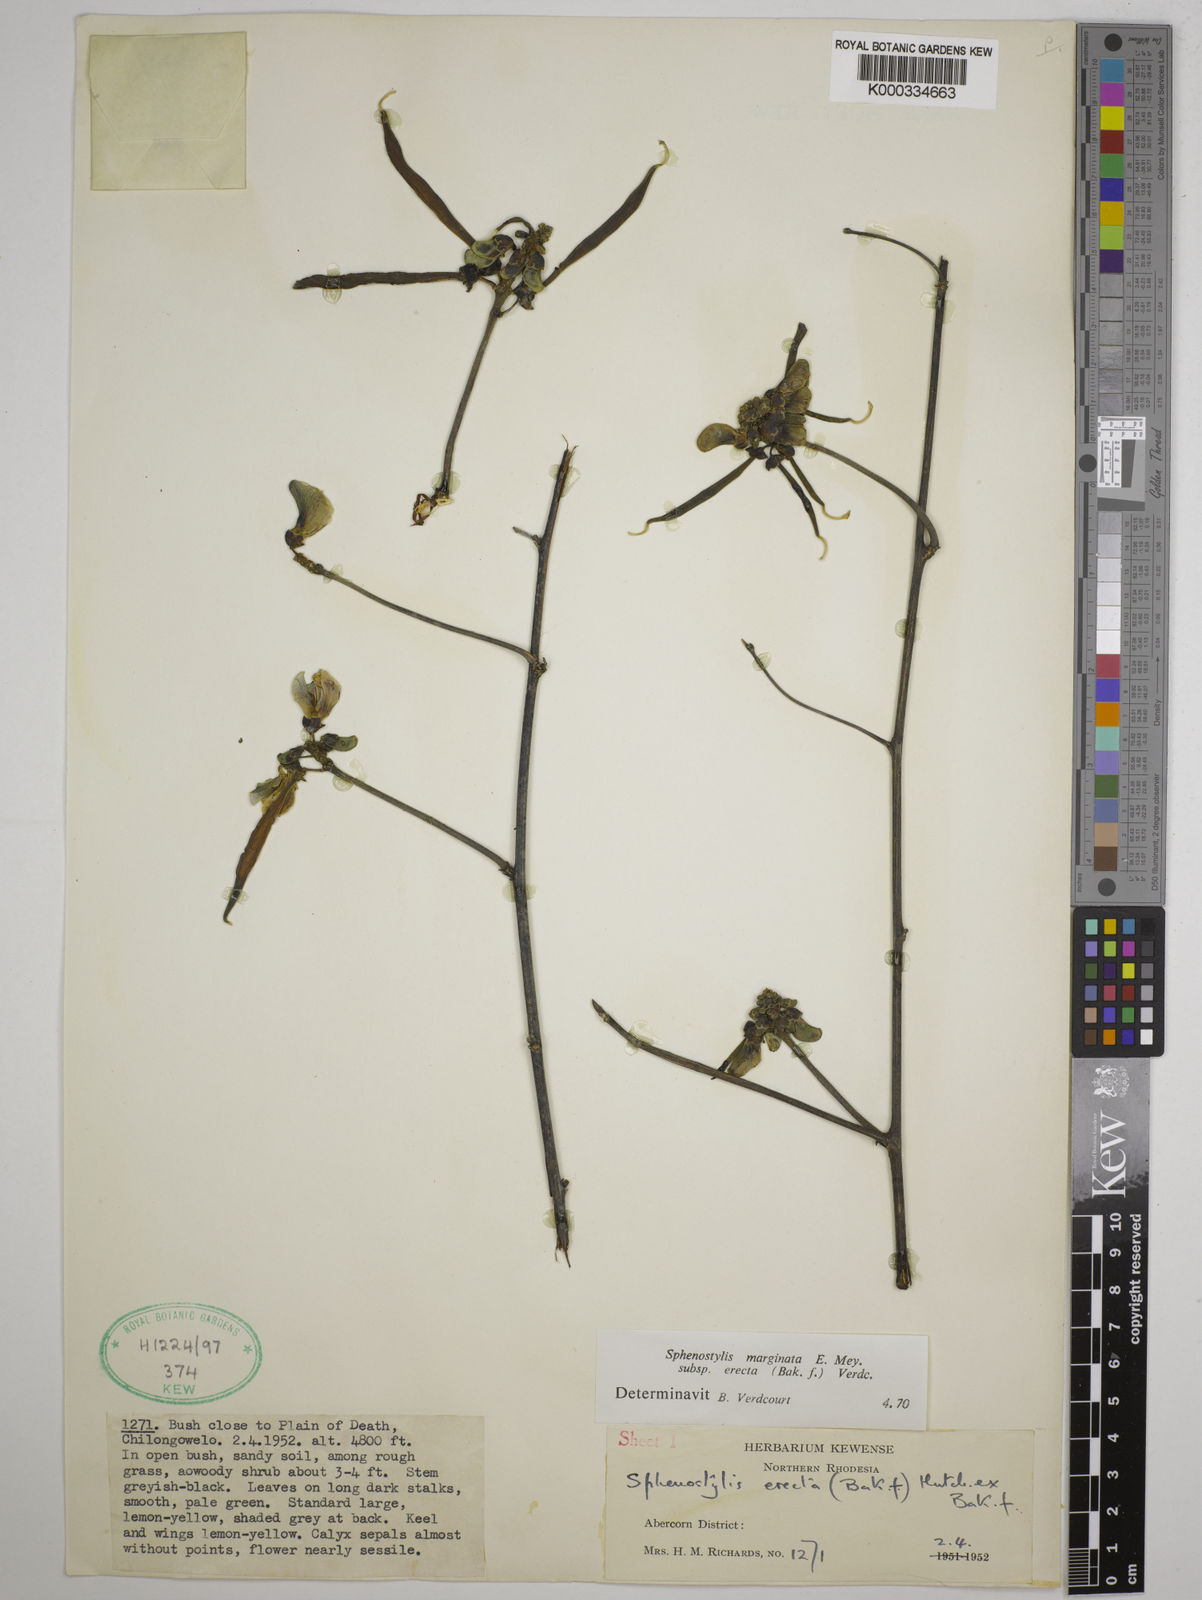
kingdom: Plantae
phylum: Tracheophyta
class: Magnoliopsida
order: Fabales
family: Fabaceae
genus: Sphenostylis
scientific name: Sphenostylis erecta
